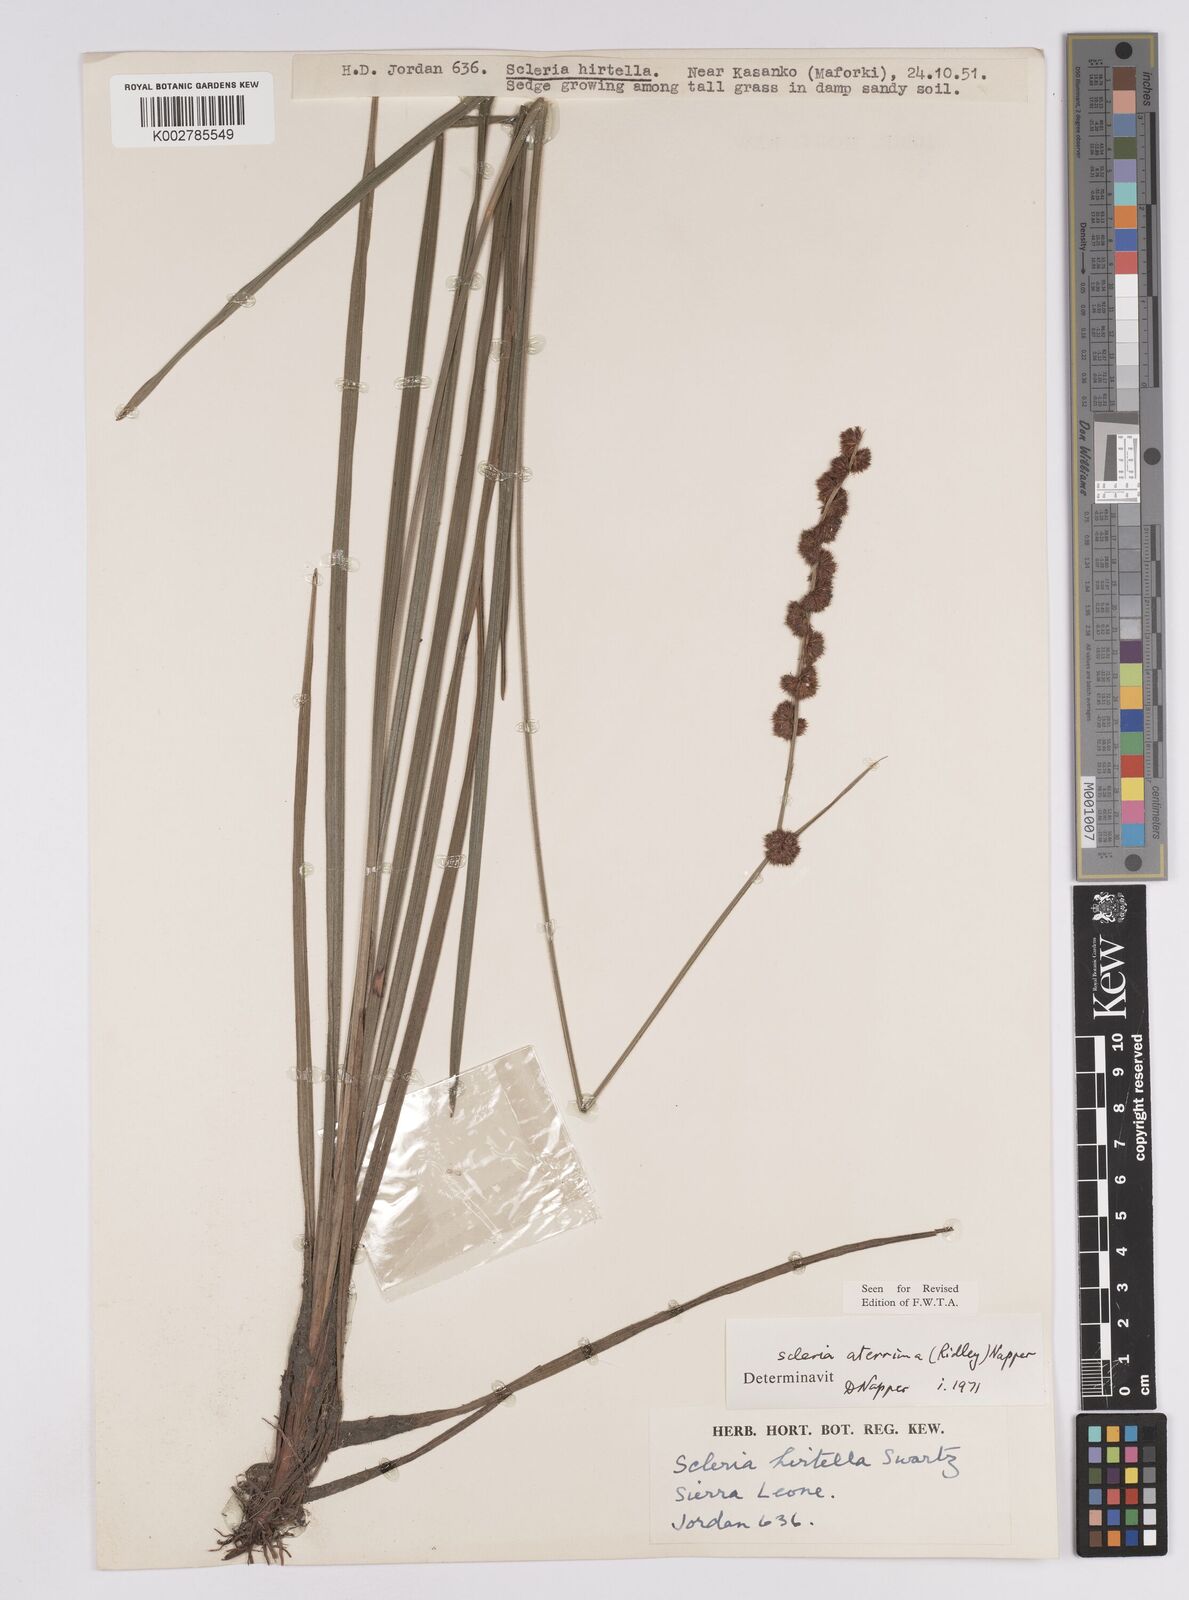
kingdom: Plantae
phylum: Tracheophyta
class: Liliopsida
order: Poales
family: Cyperaceae
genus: Scleria
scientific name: Scleria catophylla
